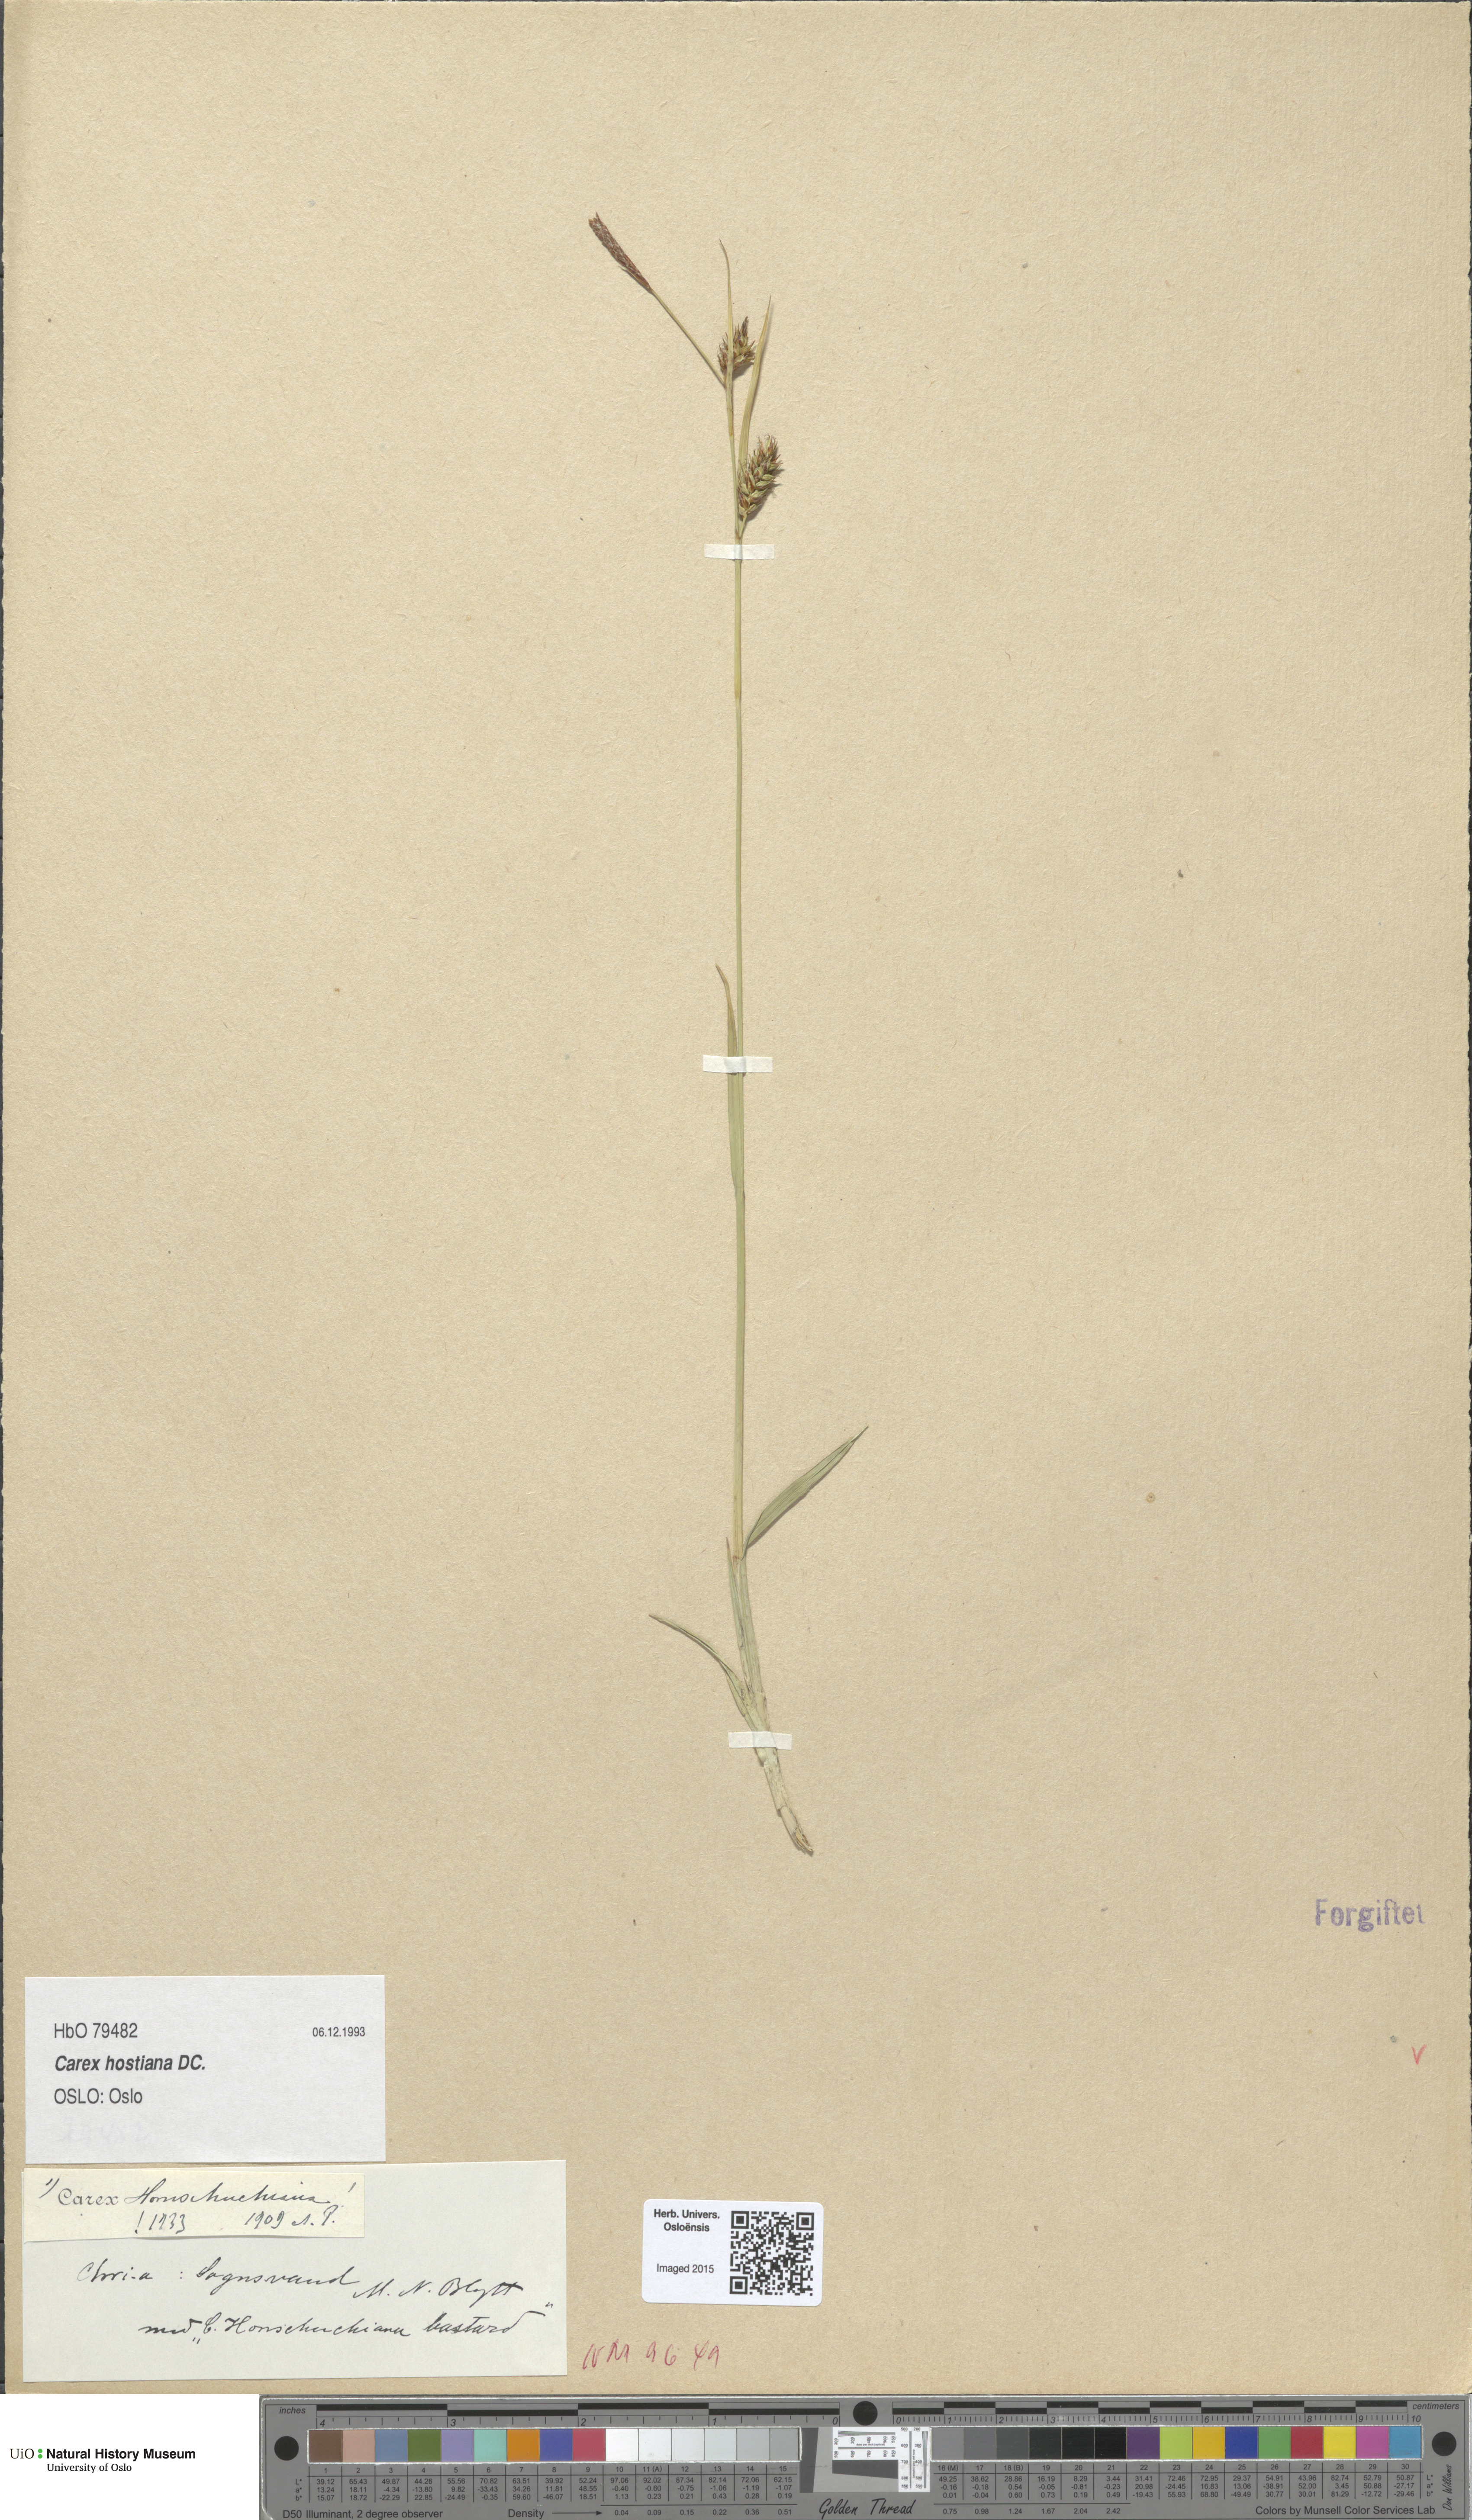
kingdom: Plantae
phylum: Tracheophyta
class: Liliopsida
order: Poales
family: Cyperaceae
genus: Carex
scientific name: Carex hostiana
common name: Tawny sedge
